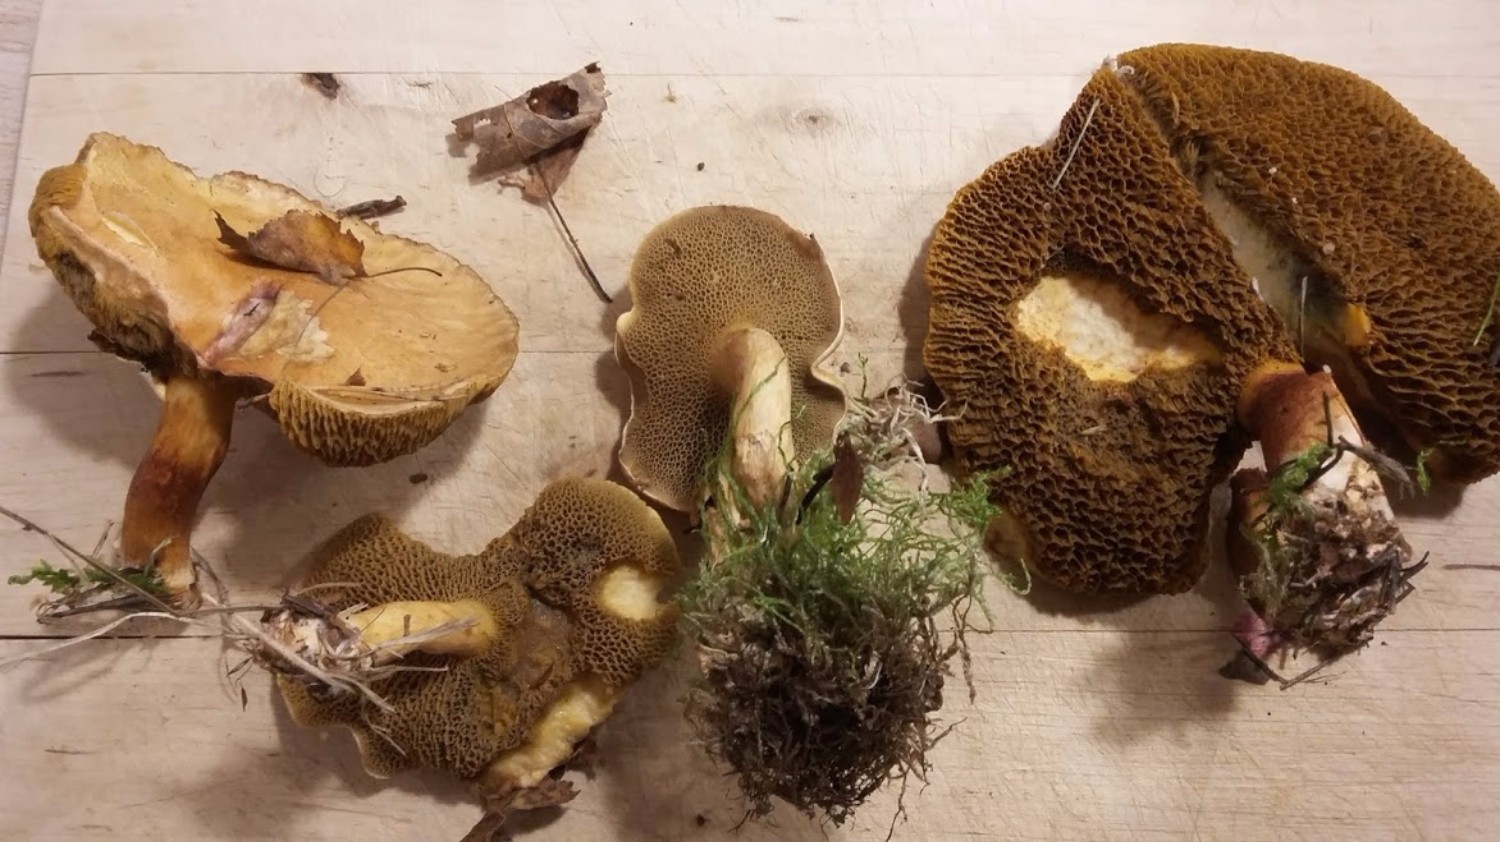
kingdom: Fungi
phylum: Basidiomycota
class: Agaricomycetes
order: Boletales
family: Suillaceae
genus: Suillus
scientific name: Suillus bovinus
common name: grovporet slimrørhat
